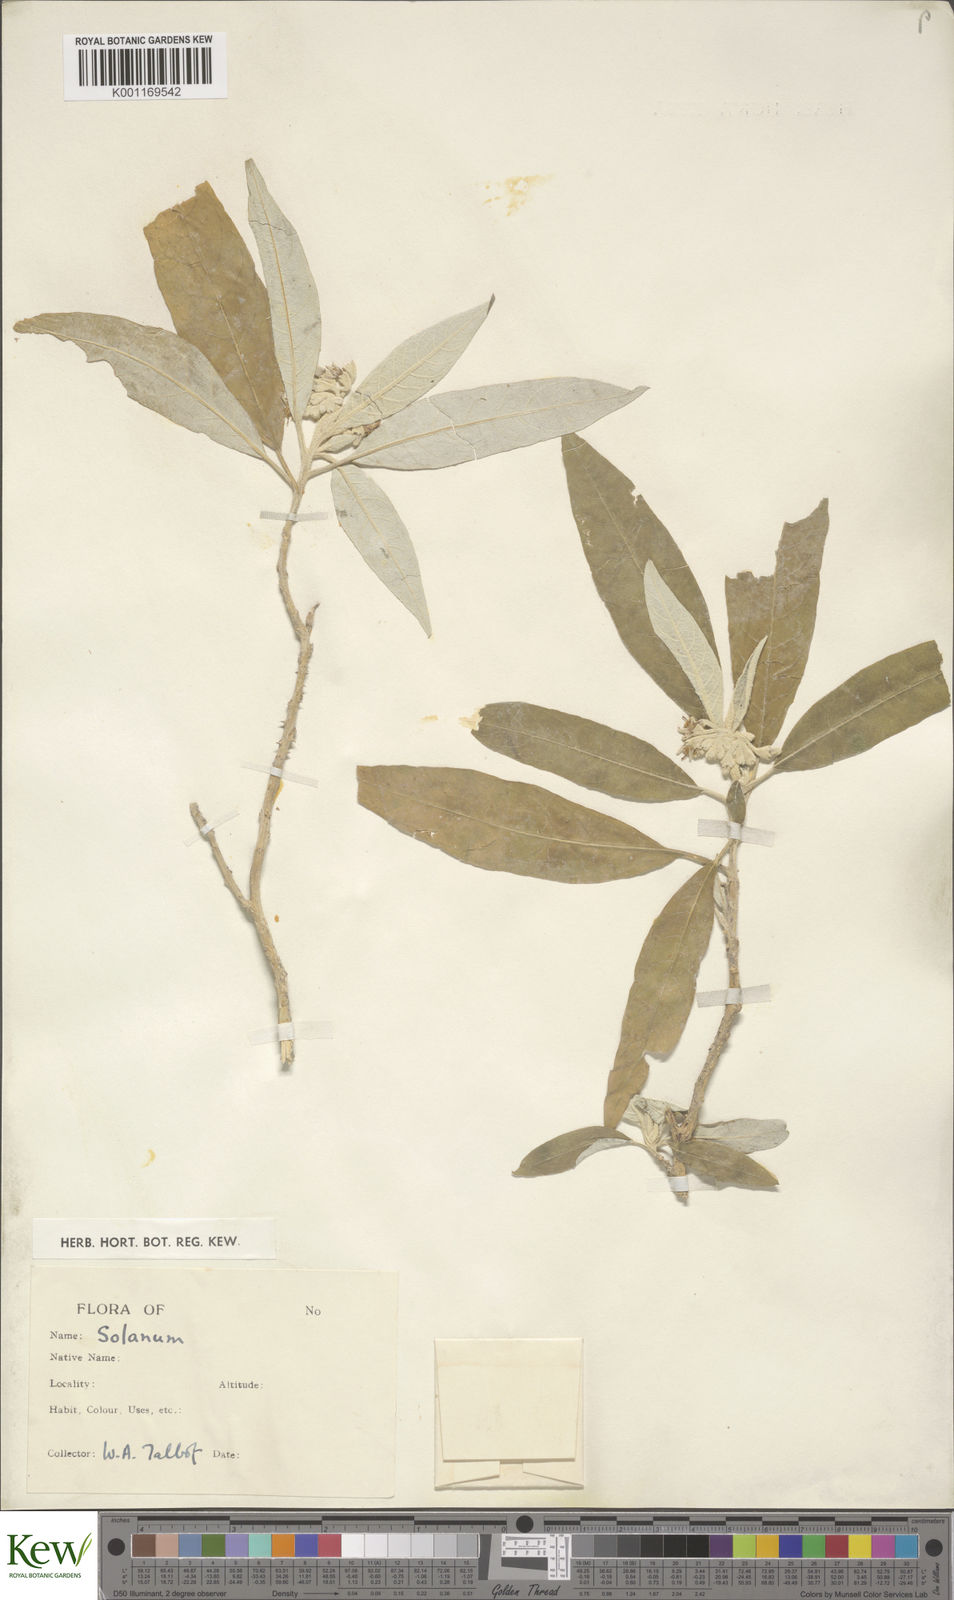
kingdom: Plantae
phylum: Tracheophyta
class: Magnoliopsida
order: Solanales
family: Solanaceae
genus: Solanum
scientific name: Solanum
